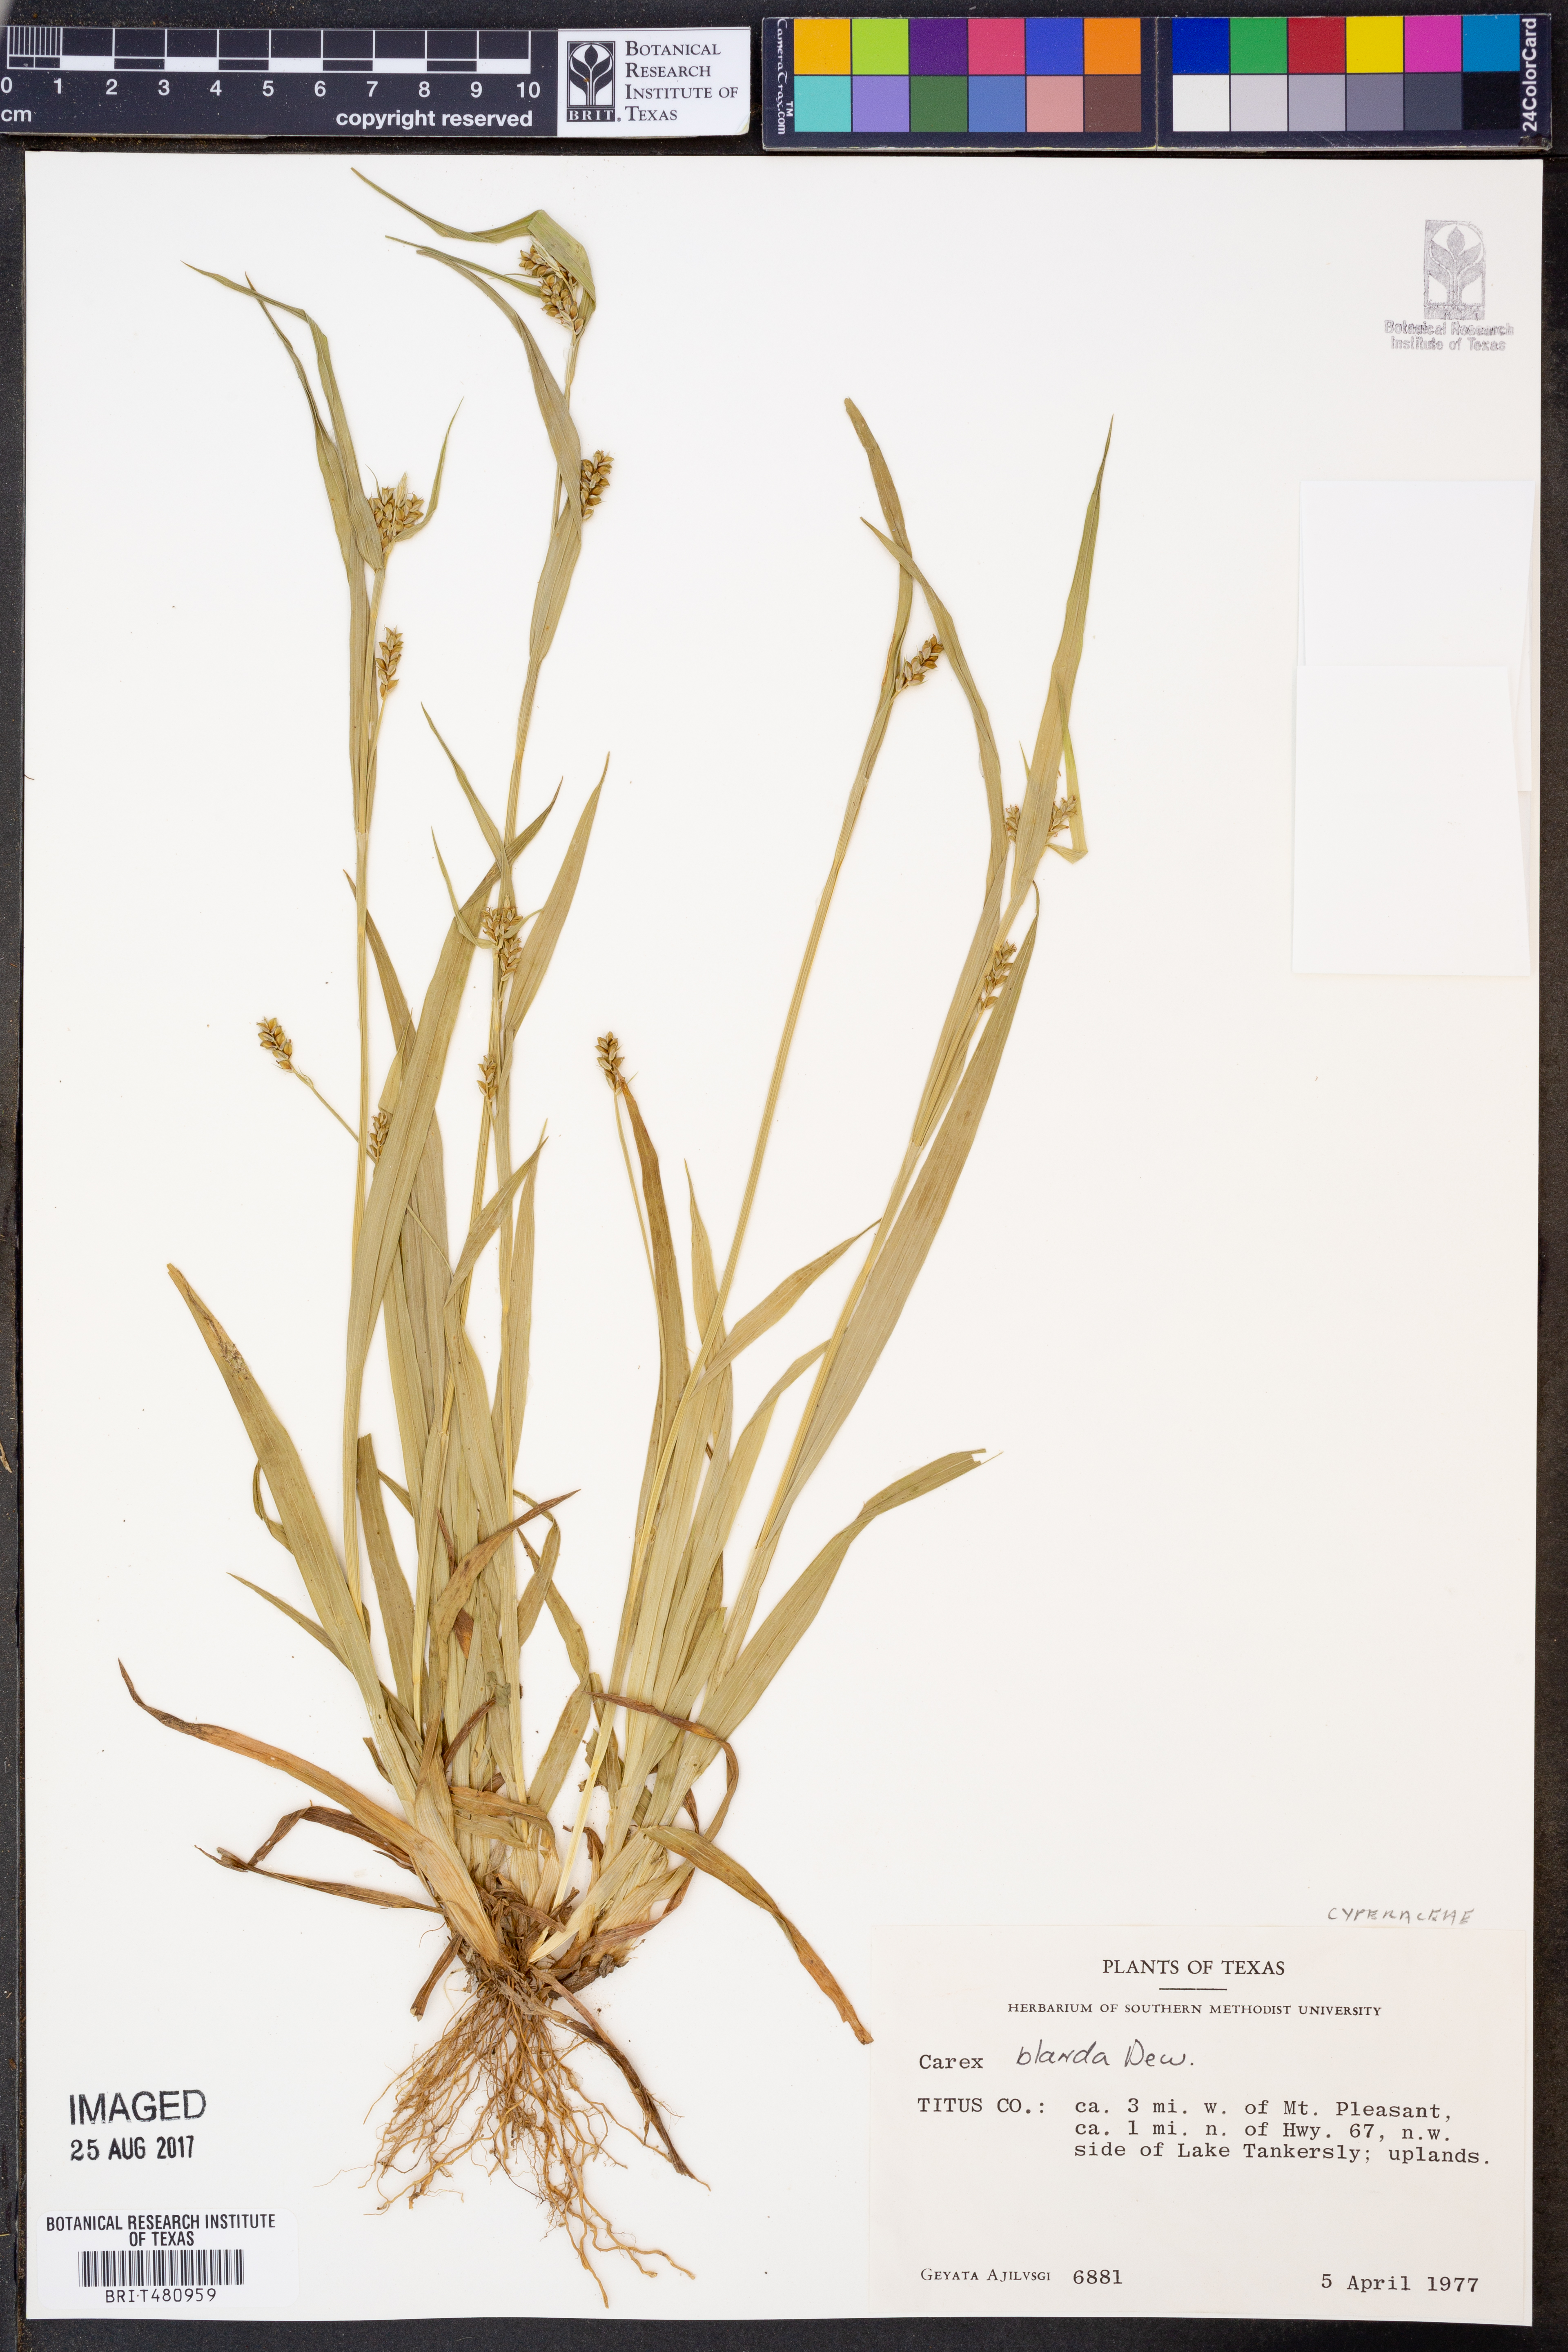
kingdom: Plantae
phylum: Tracheophyta
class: Liliopsida
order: Poales
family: Cyperaceae
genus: Carex
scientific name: Carex blanda
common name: Bland sedge
